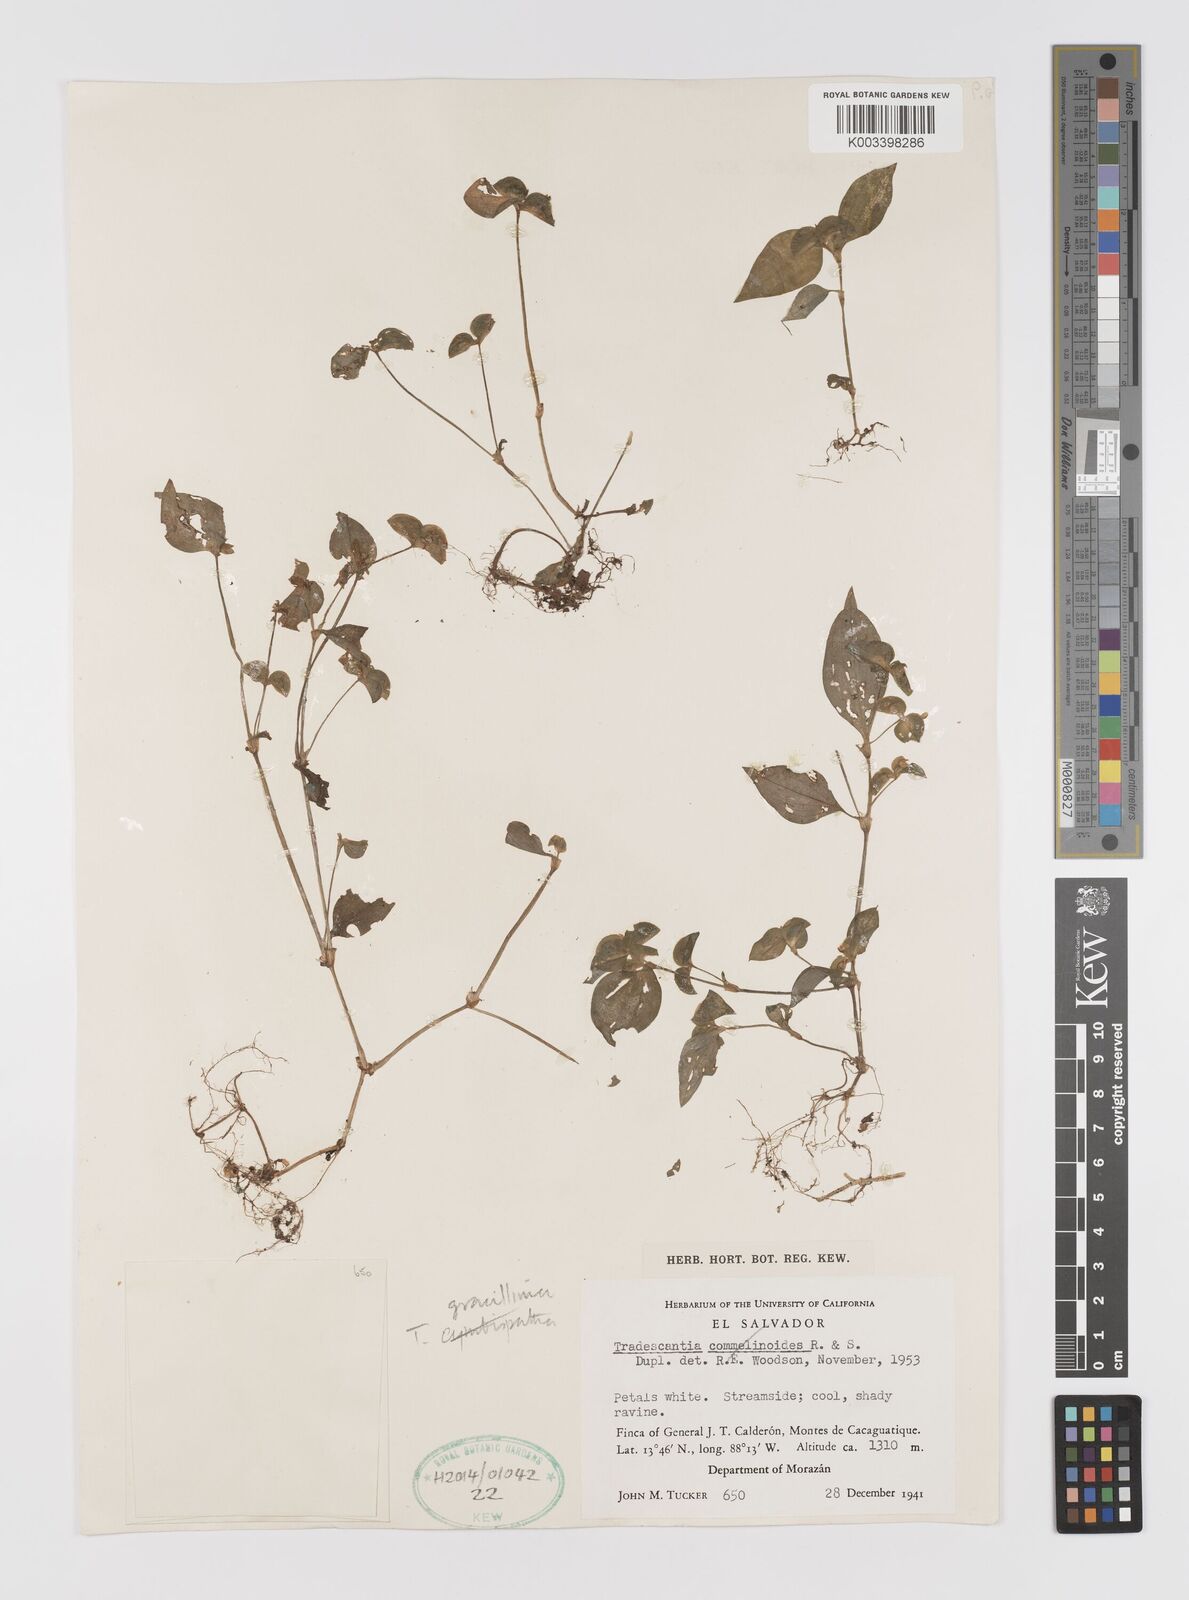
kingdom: Plantae
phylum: Tracheophyta
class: Liliopsida
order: Commelinales
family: Commelinaceae
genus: Tradescantia
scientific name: Tradescantia gracillima
